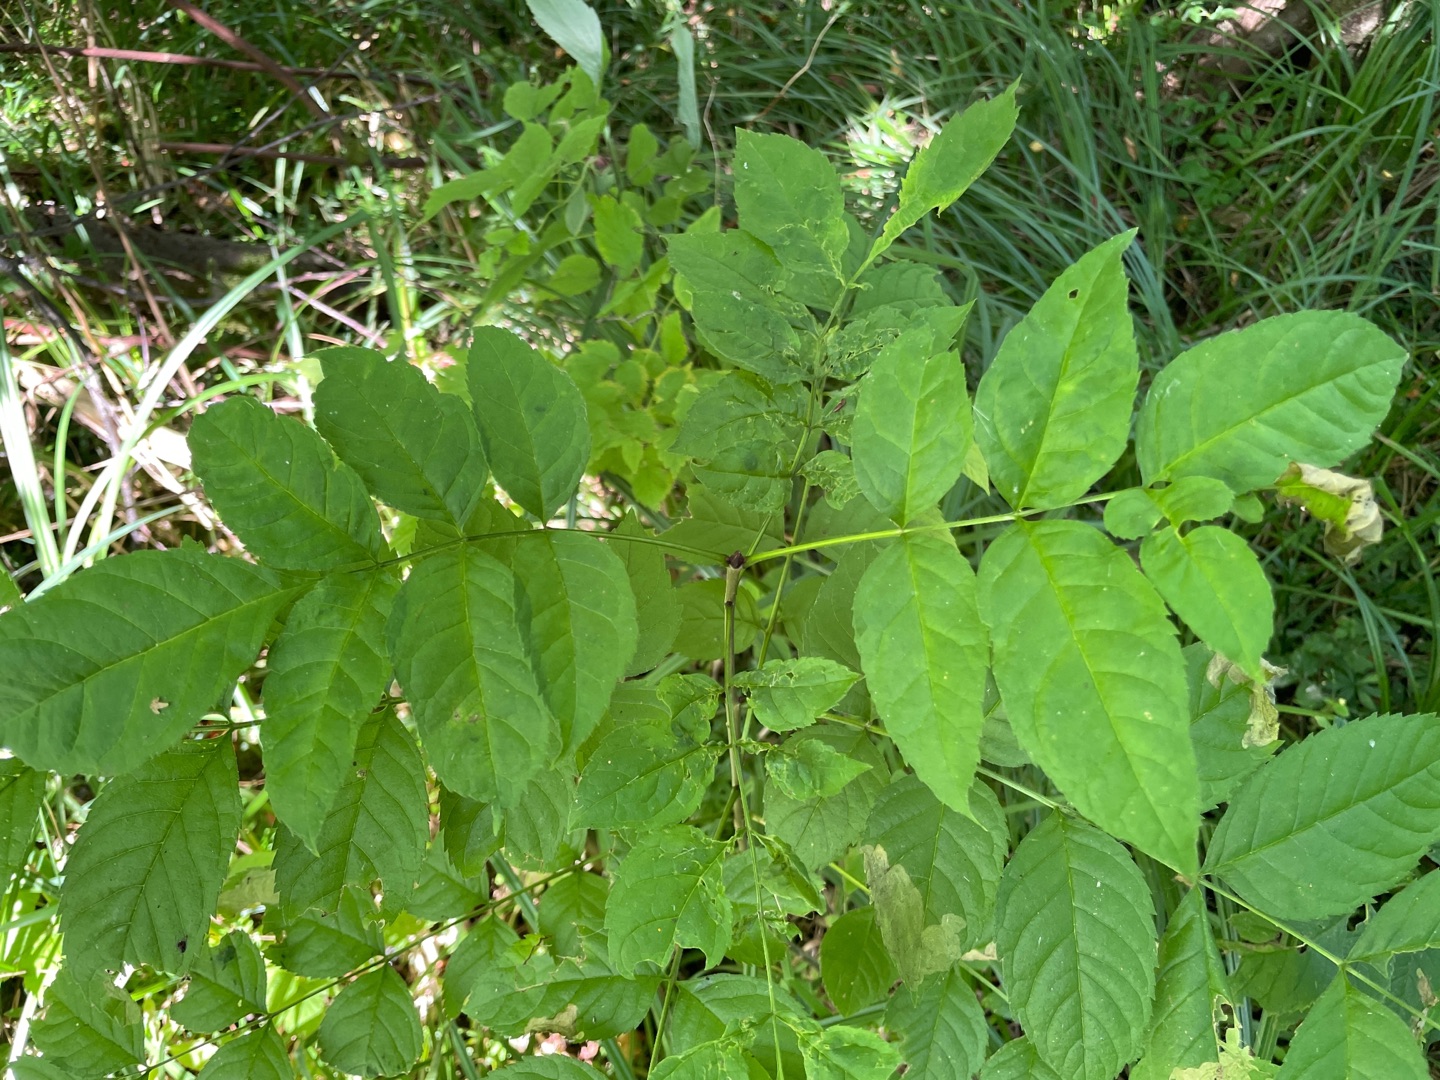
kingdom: Plantae
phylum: Tracheophyta
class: Magnoliopsida
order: Lamiales
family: Oleaceae
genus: Fraxinus
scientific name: Fraxinus excelsior
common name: Ask
